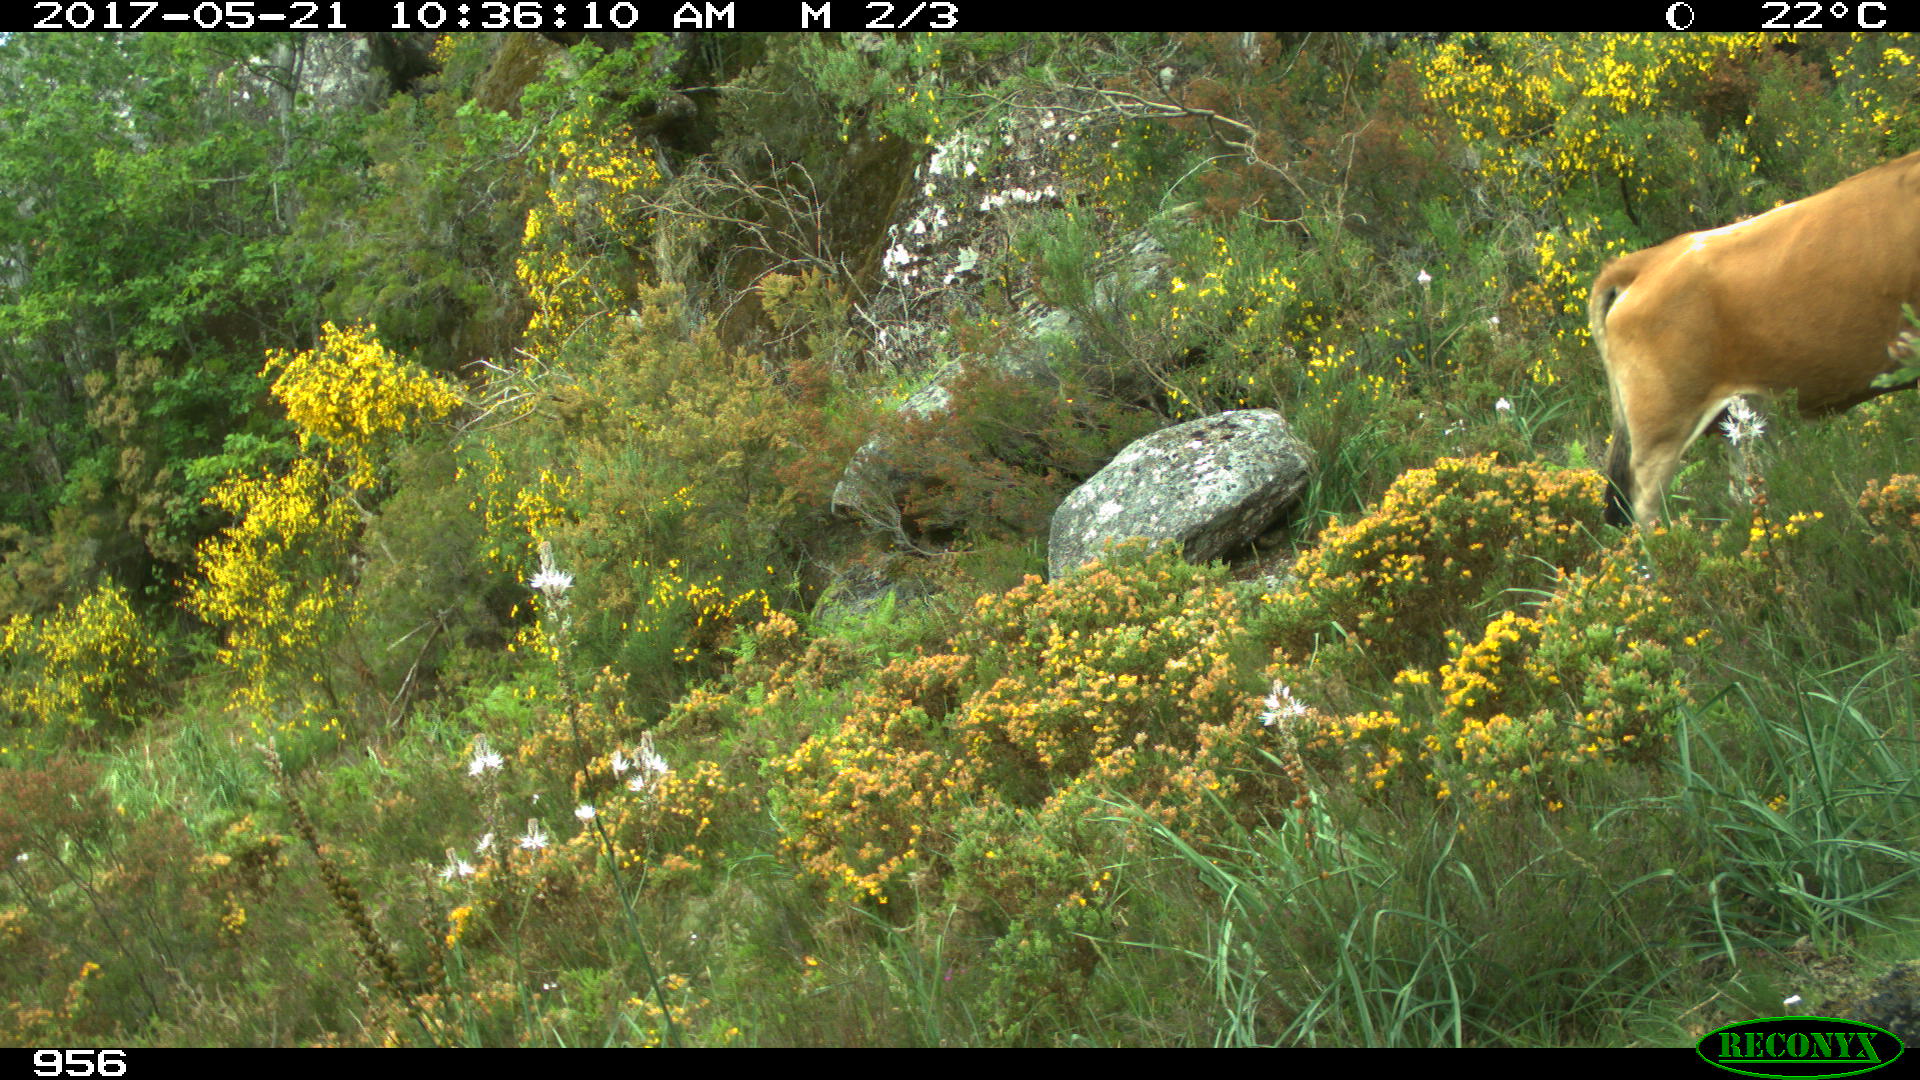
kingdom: Animalia
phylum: Chordata
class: Mammalia
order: Artiodactyla
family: Bovidae
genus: Bos
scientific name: Bos taurus
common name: Domesticated cattle
